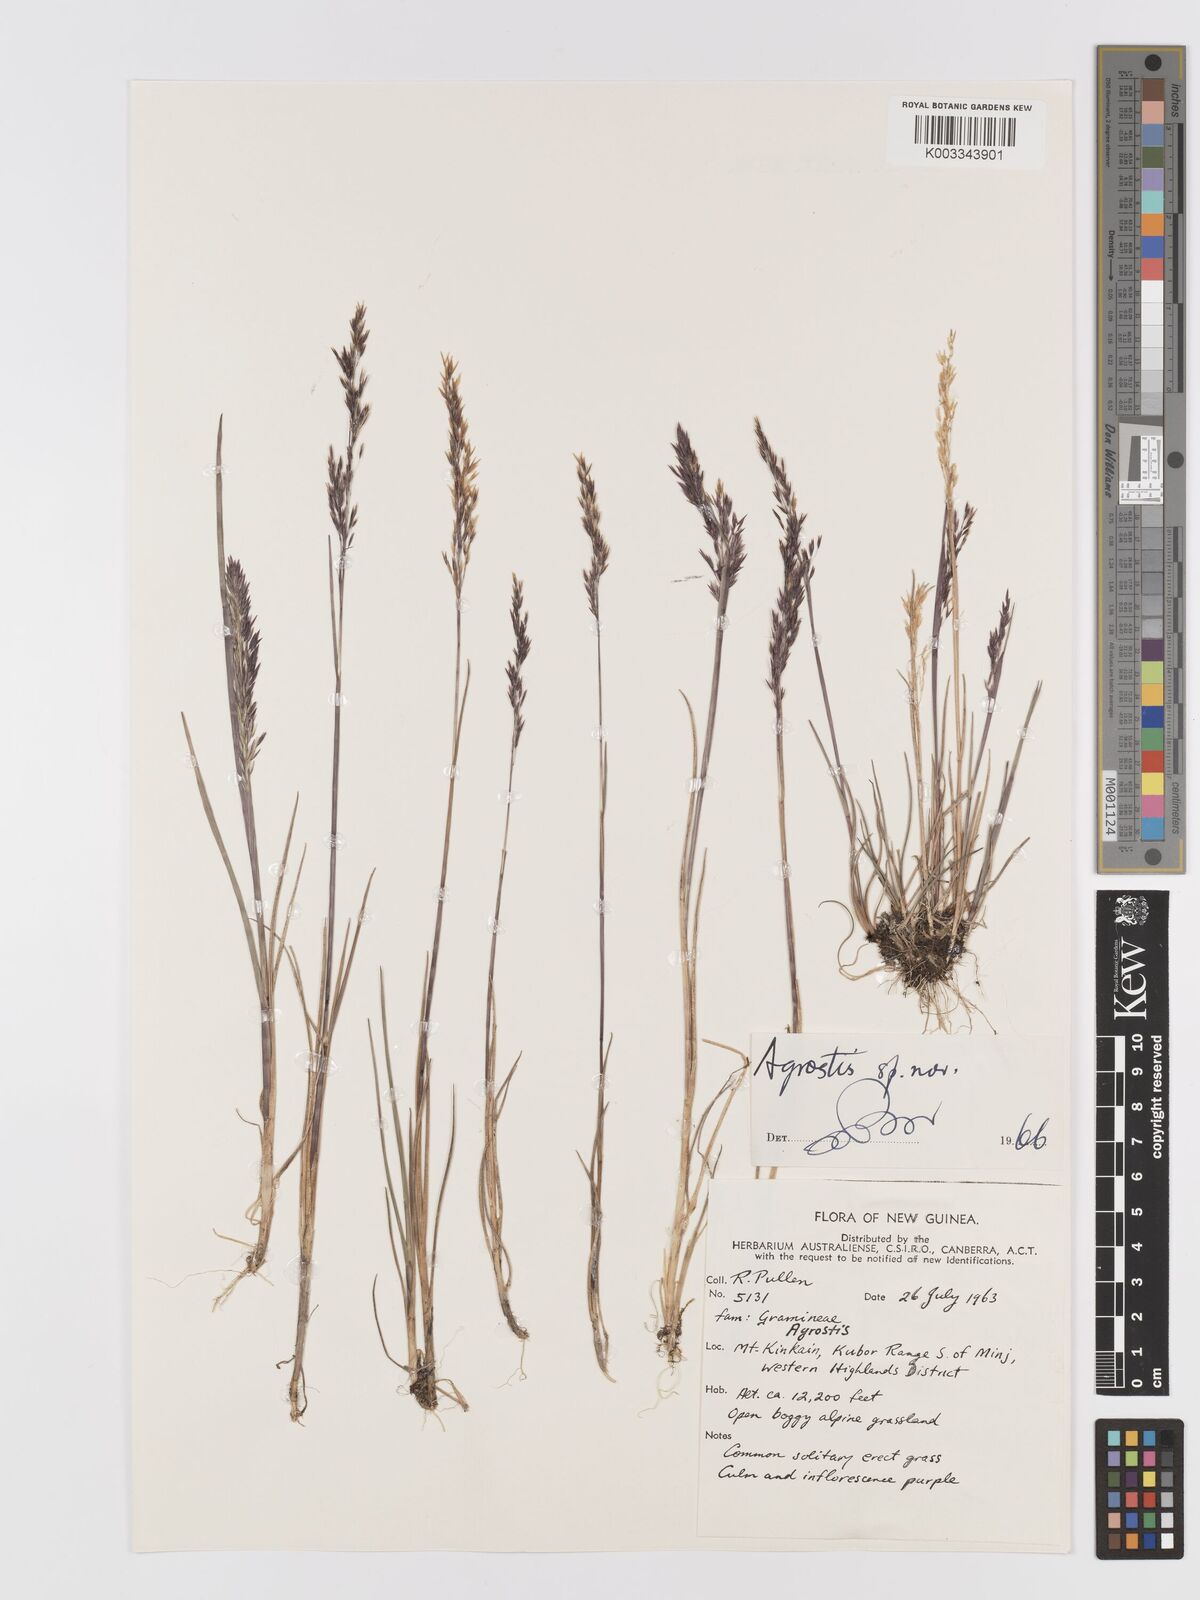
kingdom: Plantae
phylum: Tracheophyta
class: Liliopsida
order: Poales
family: Poaceae
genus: Agrostis
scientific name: Agrostis infirma
